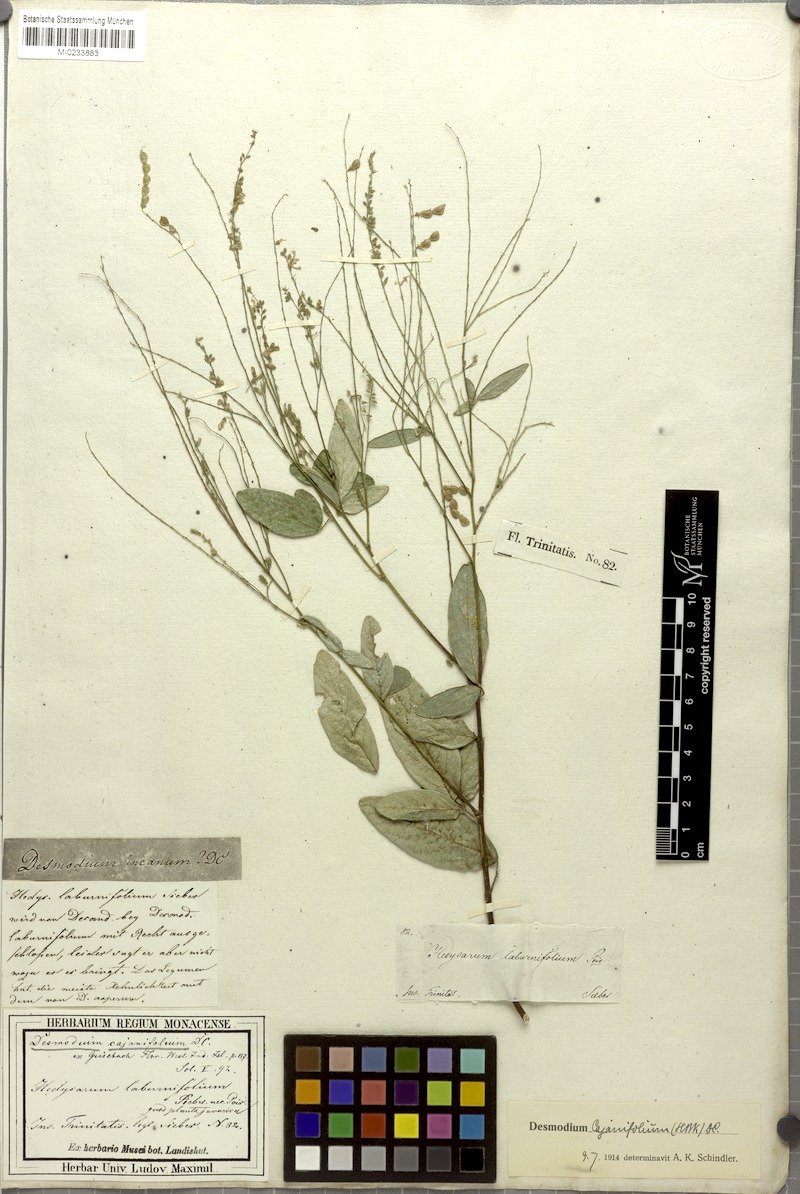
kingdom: Plantae
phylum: Tracheophyta
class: Magnoliopsida
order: Fabales
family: Fabaceae
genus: Desmodium
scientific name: Desmodium cajanifolium
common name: Tropical ticktrefoil
